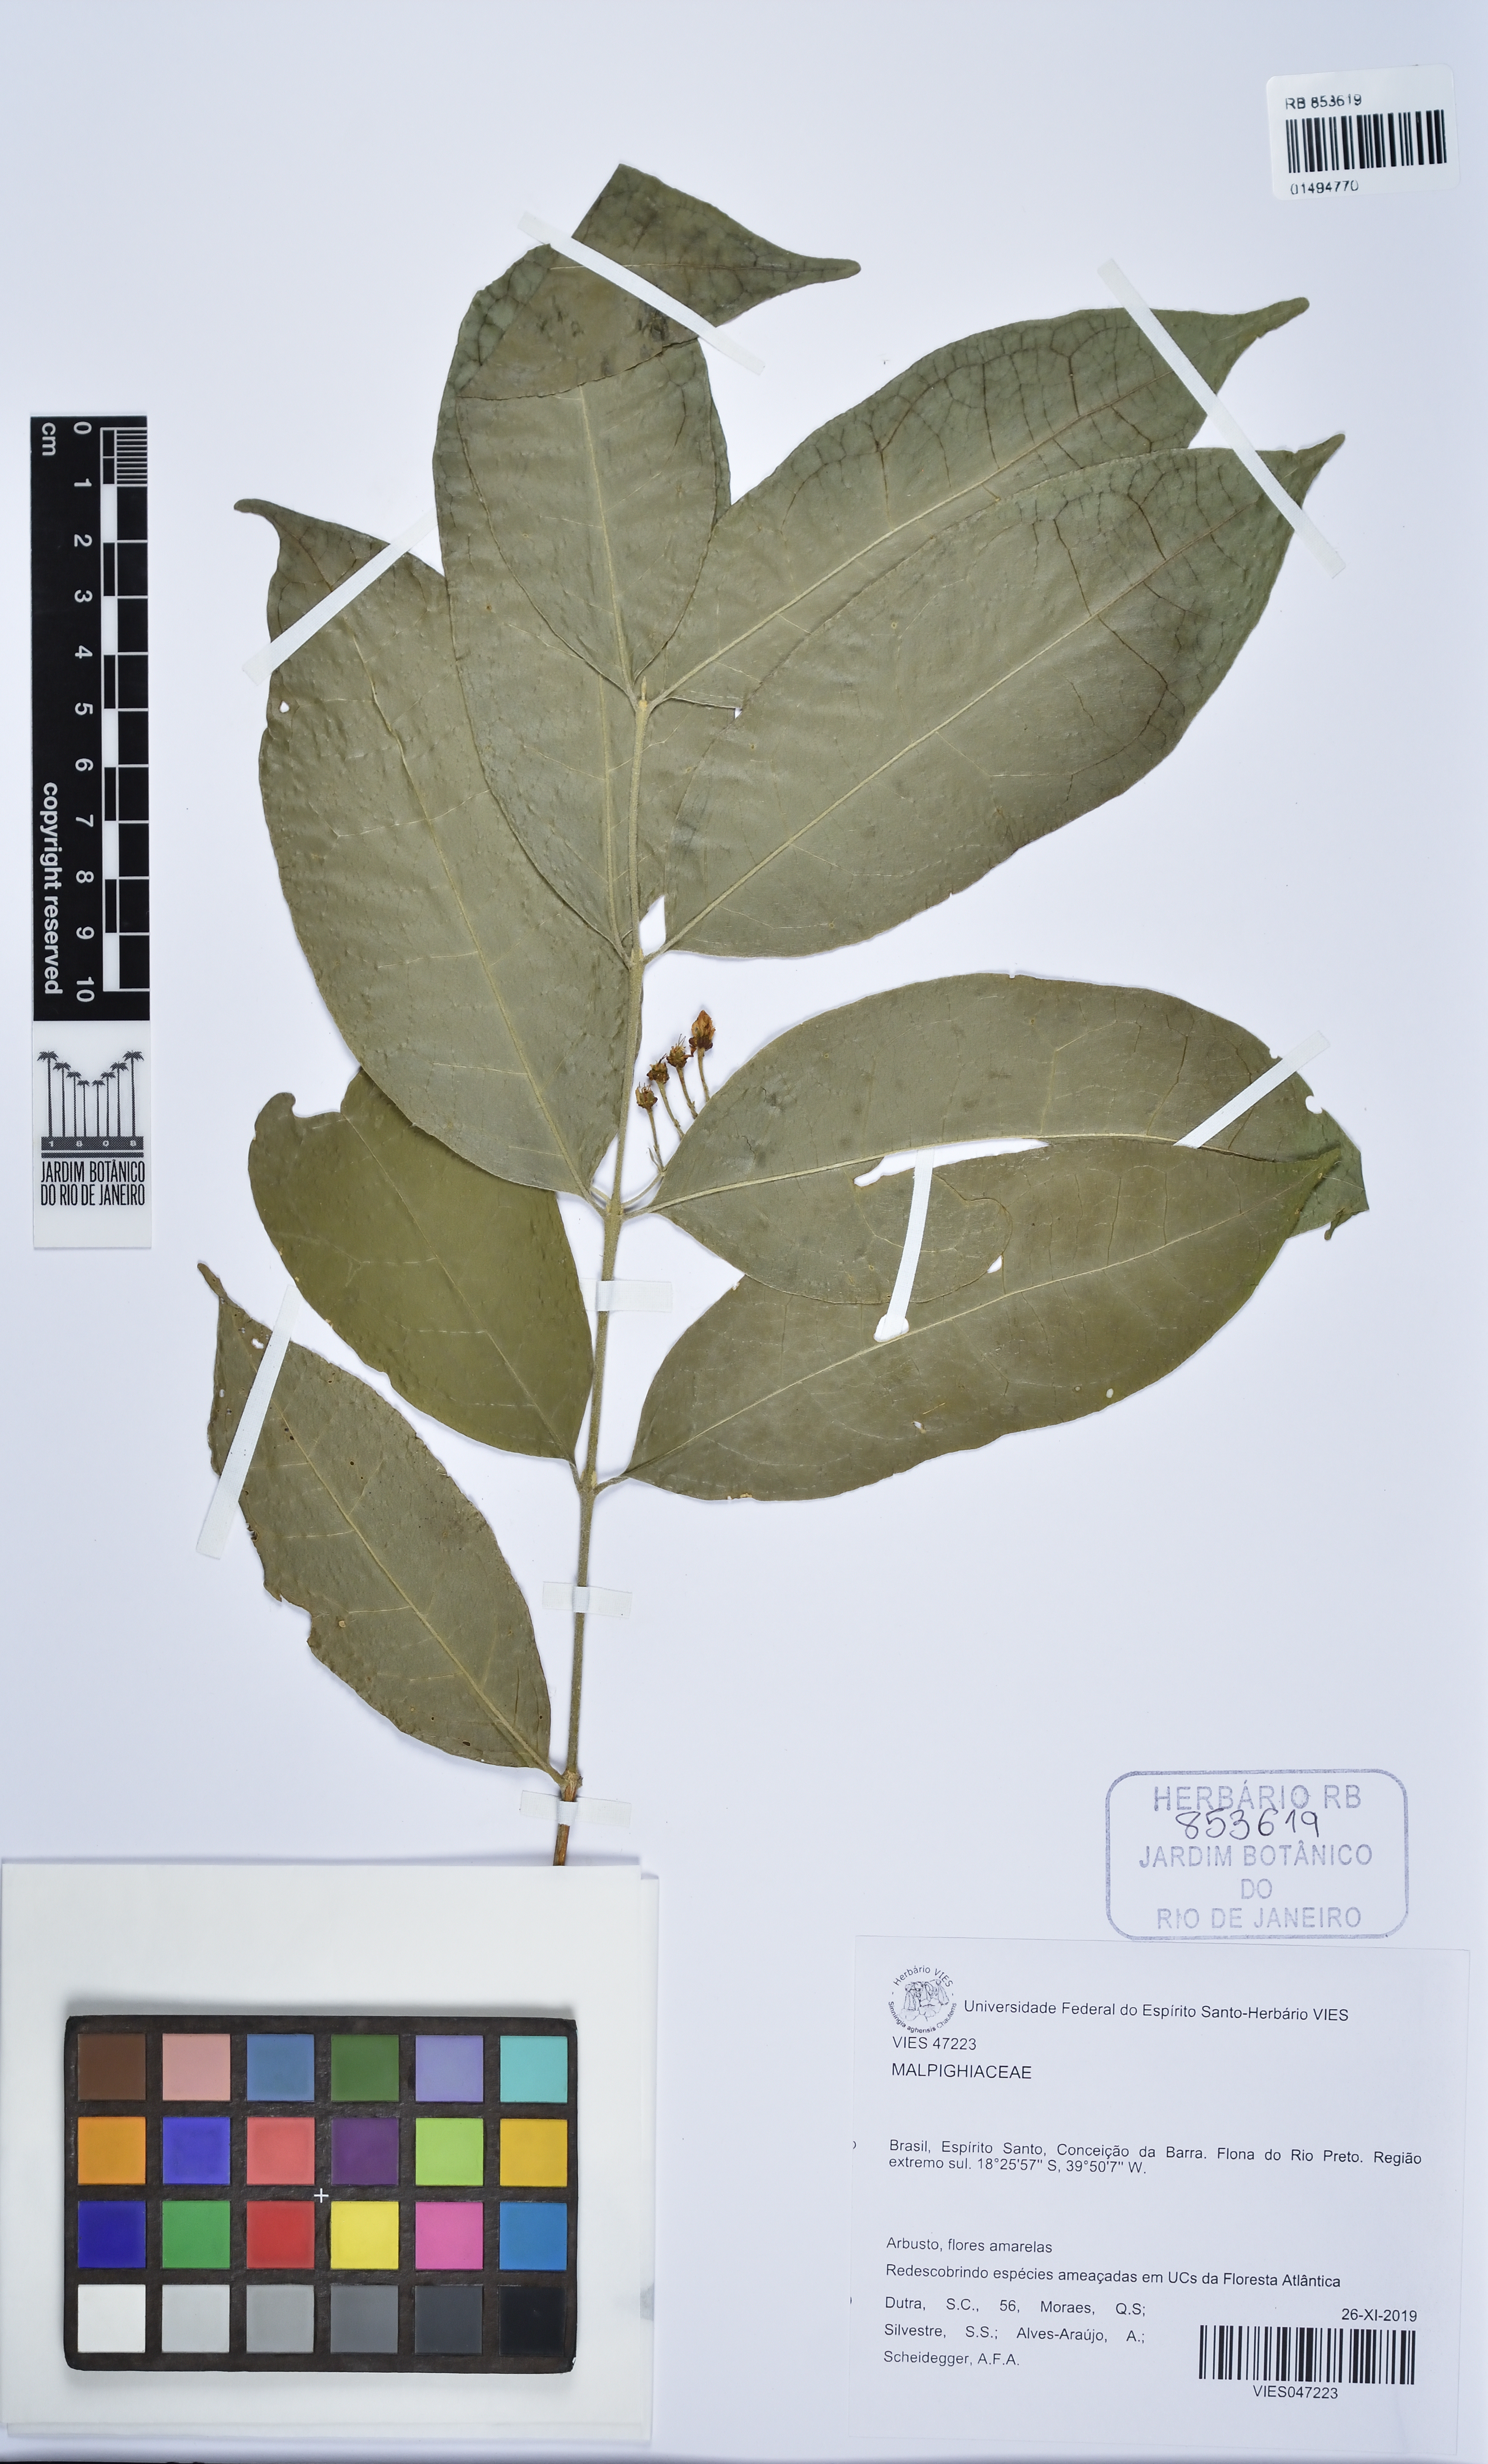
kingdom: Plantae
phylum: Tracheophyta
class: Magnoliopsida
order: Malpighiales
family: Malpighiaceae
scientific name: Malpighiaceae
